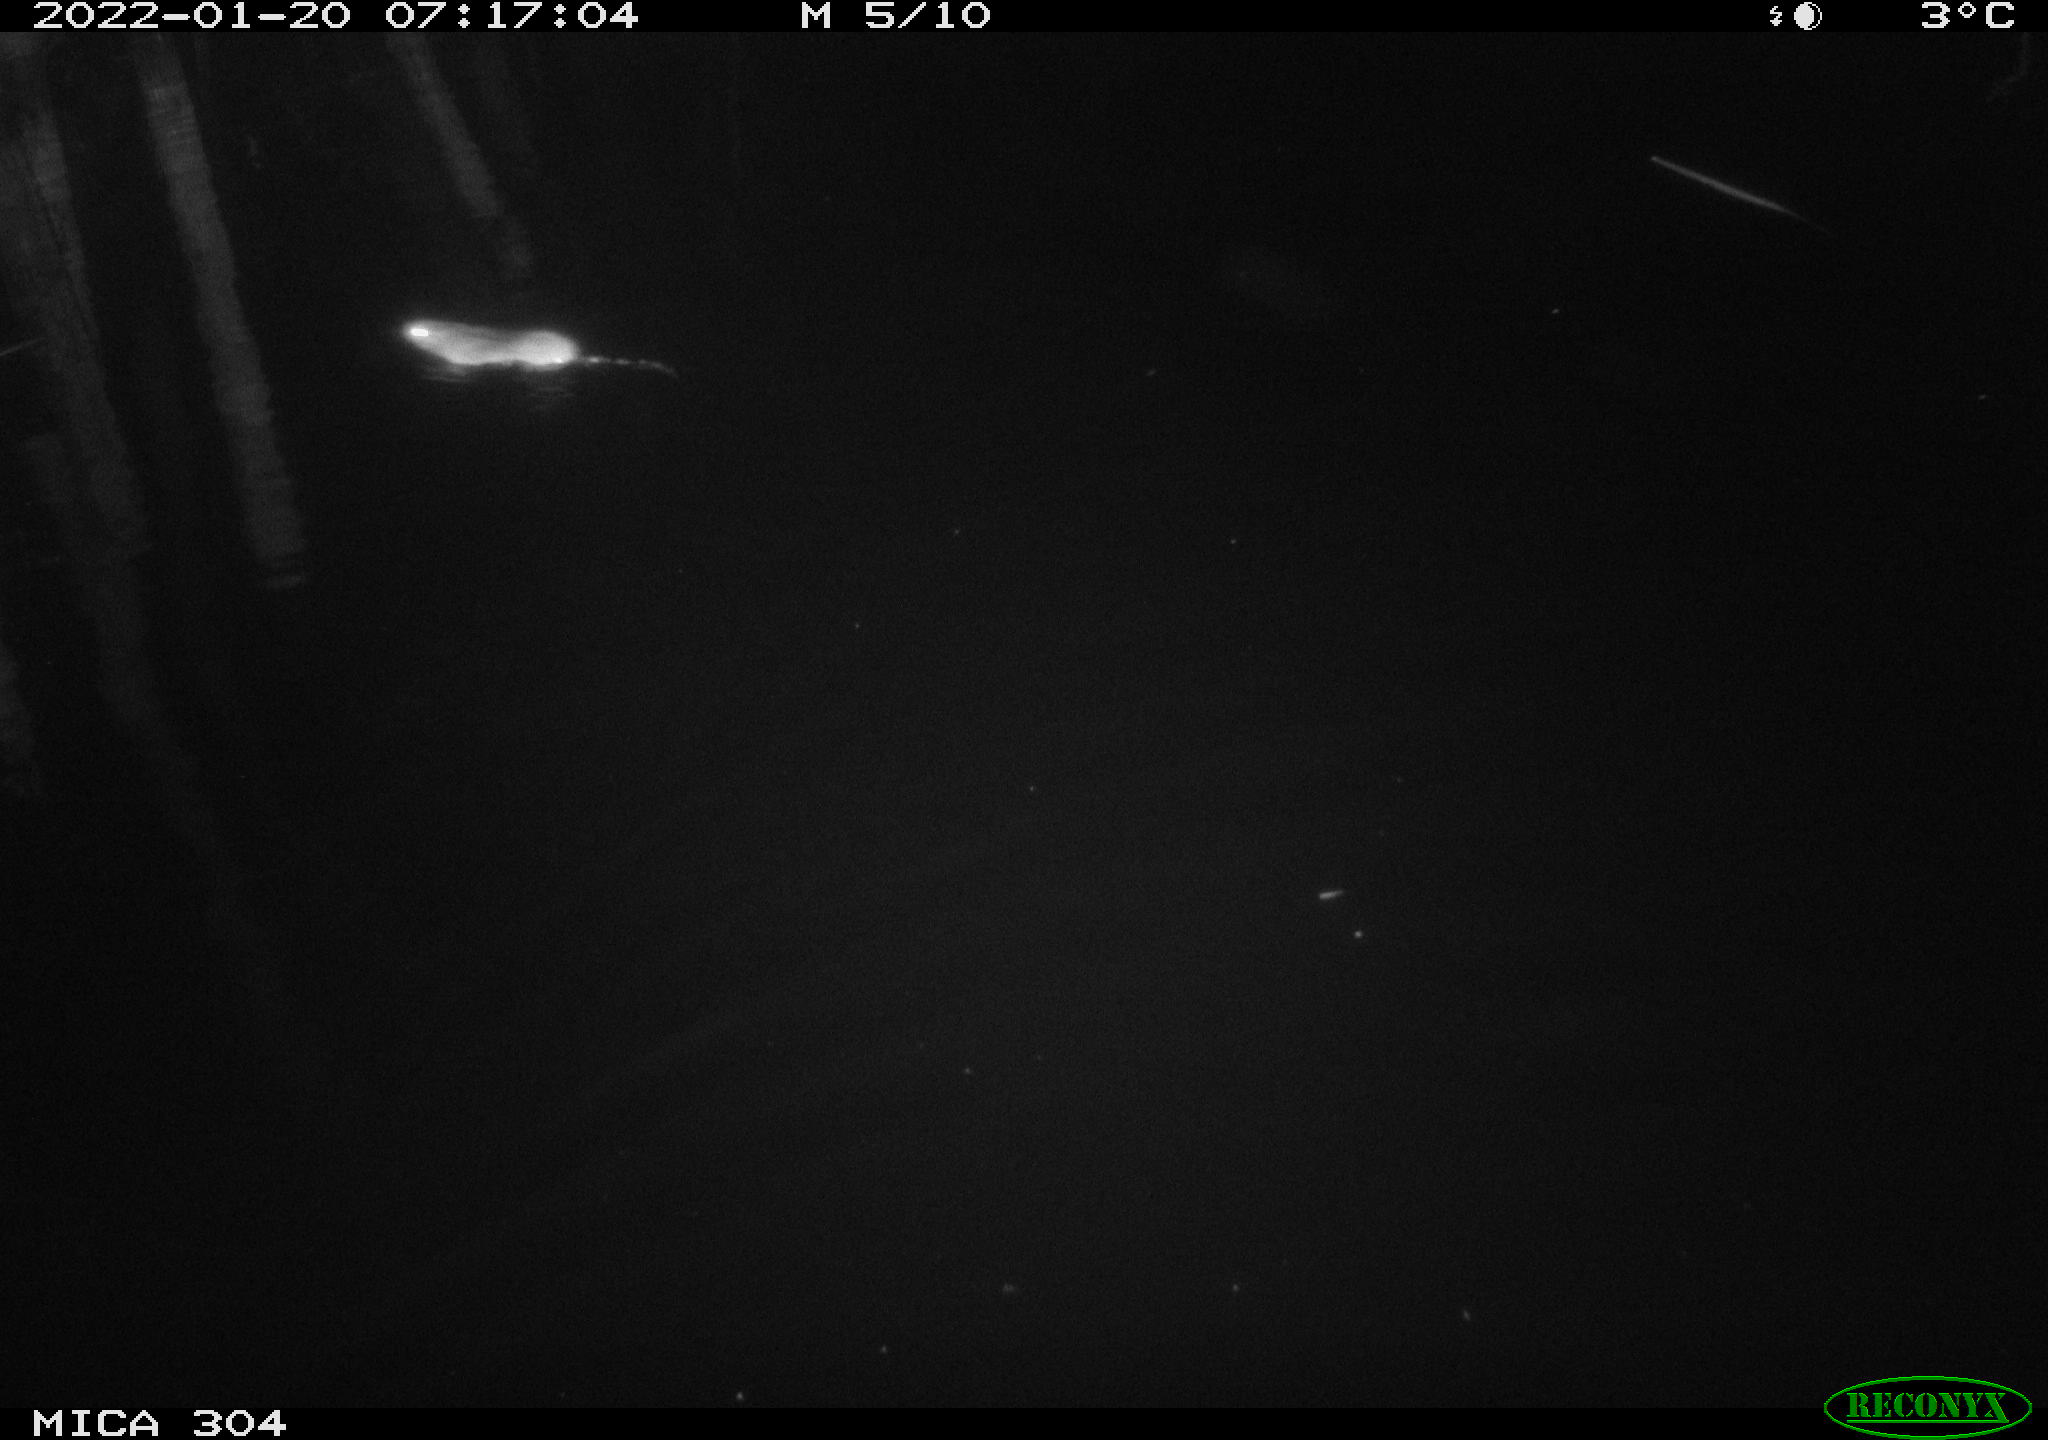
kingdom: Animalia
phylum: Chordata
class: Mammalia
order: Rodentia
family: Muridae
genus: Rattus
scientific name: Rattus norvegicus
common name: Brown rat
